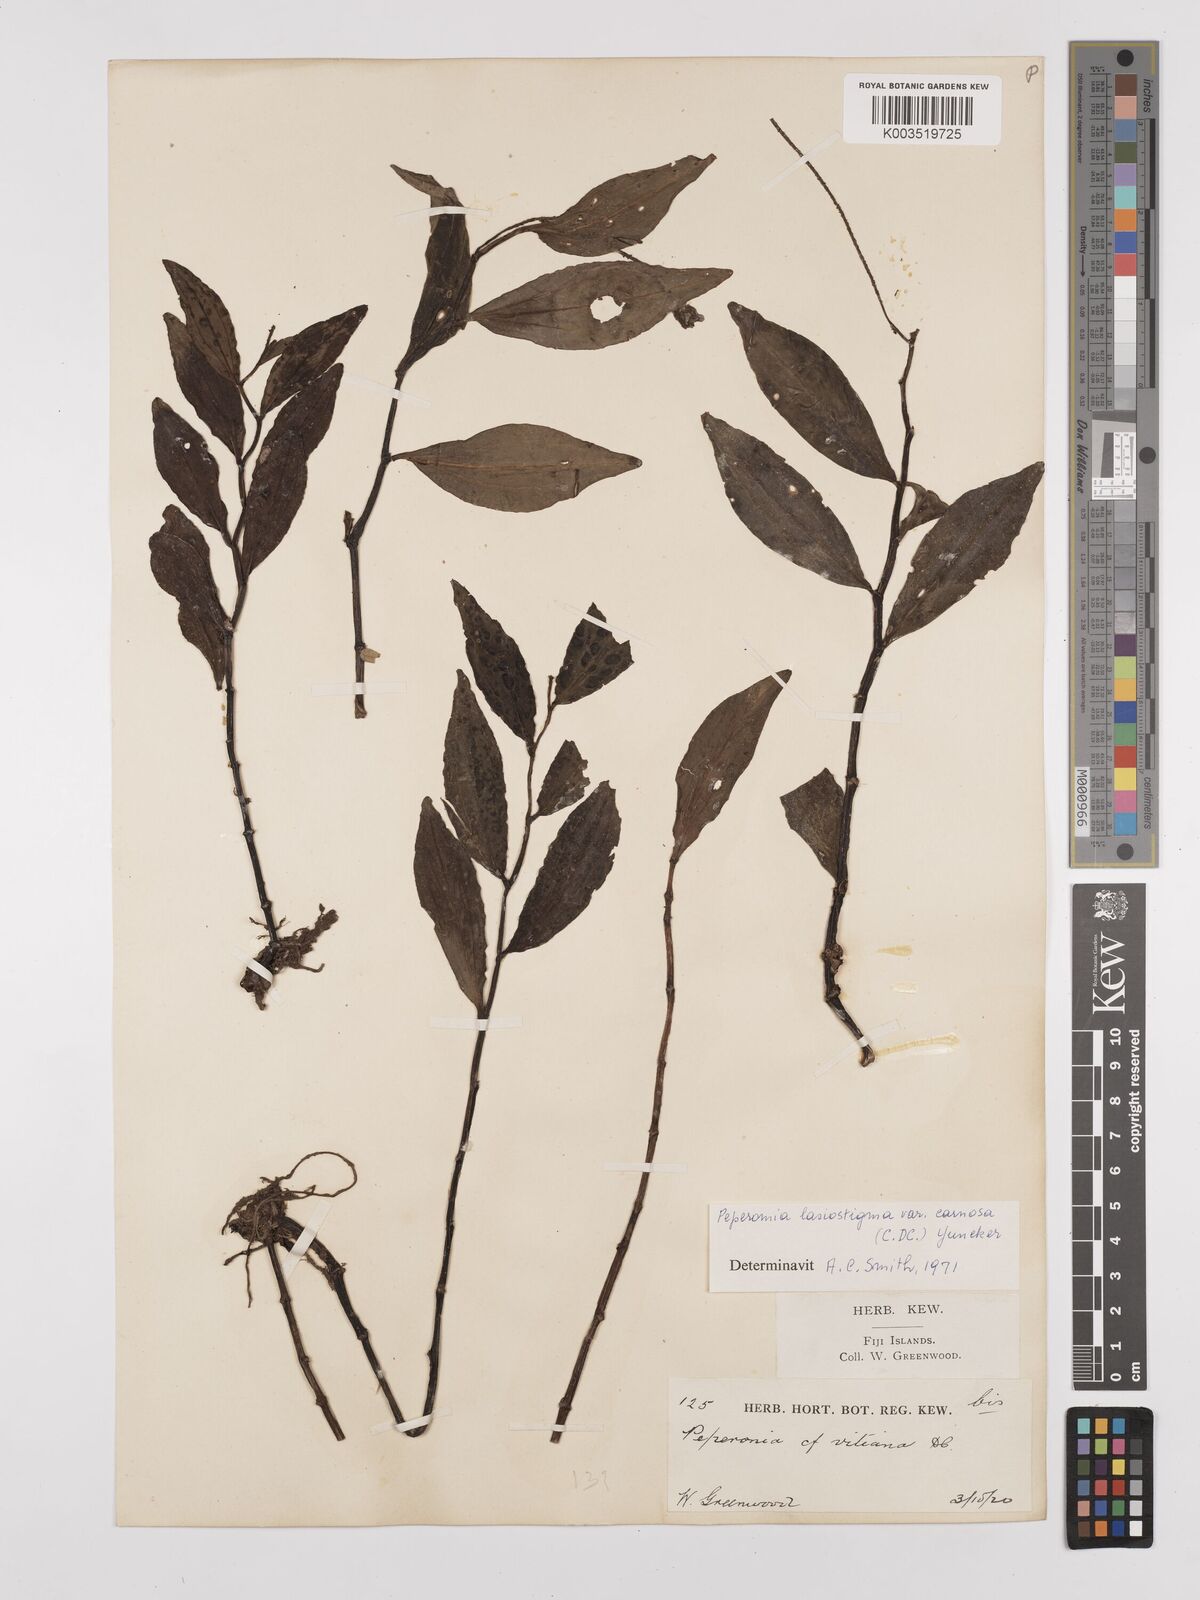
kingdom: Plantae
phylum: Tracheophyta
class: Magnoliopsida
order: Piperales
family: Piperaceae
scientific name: Piperaceae
